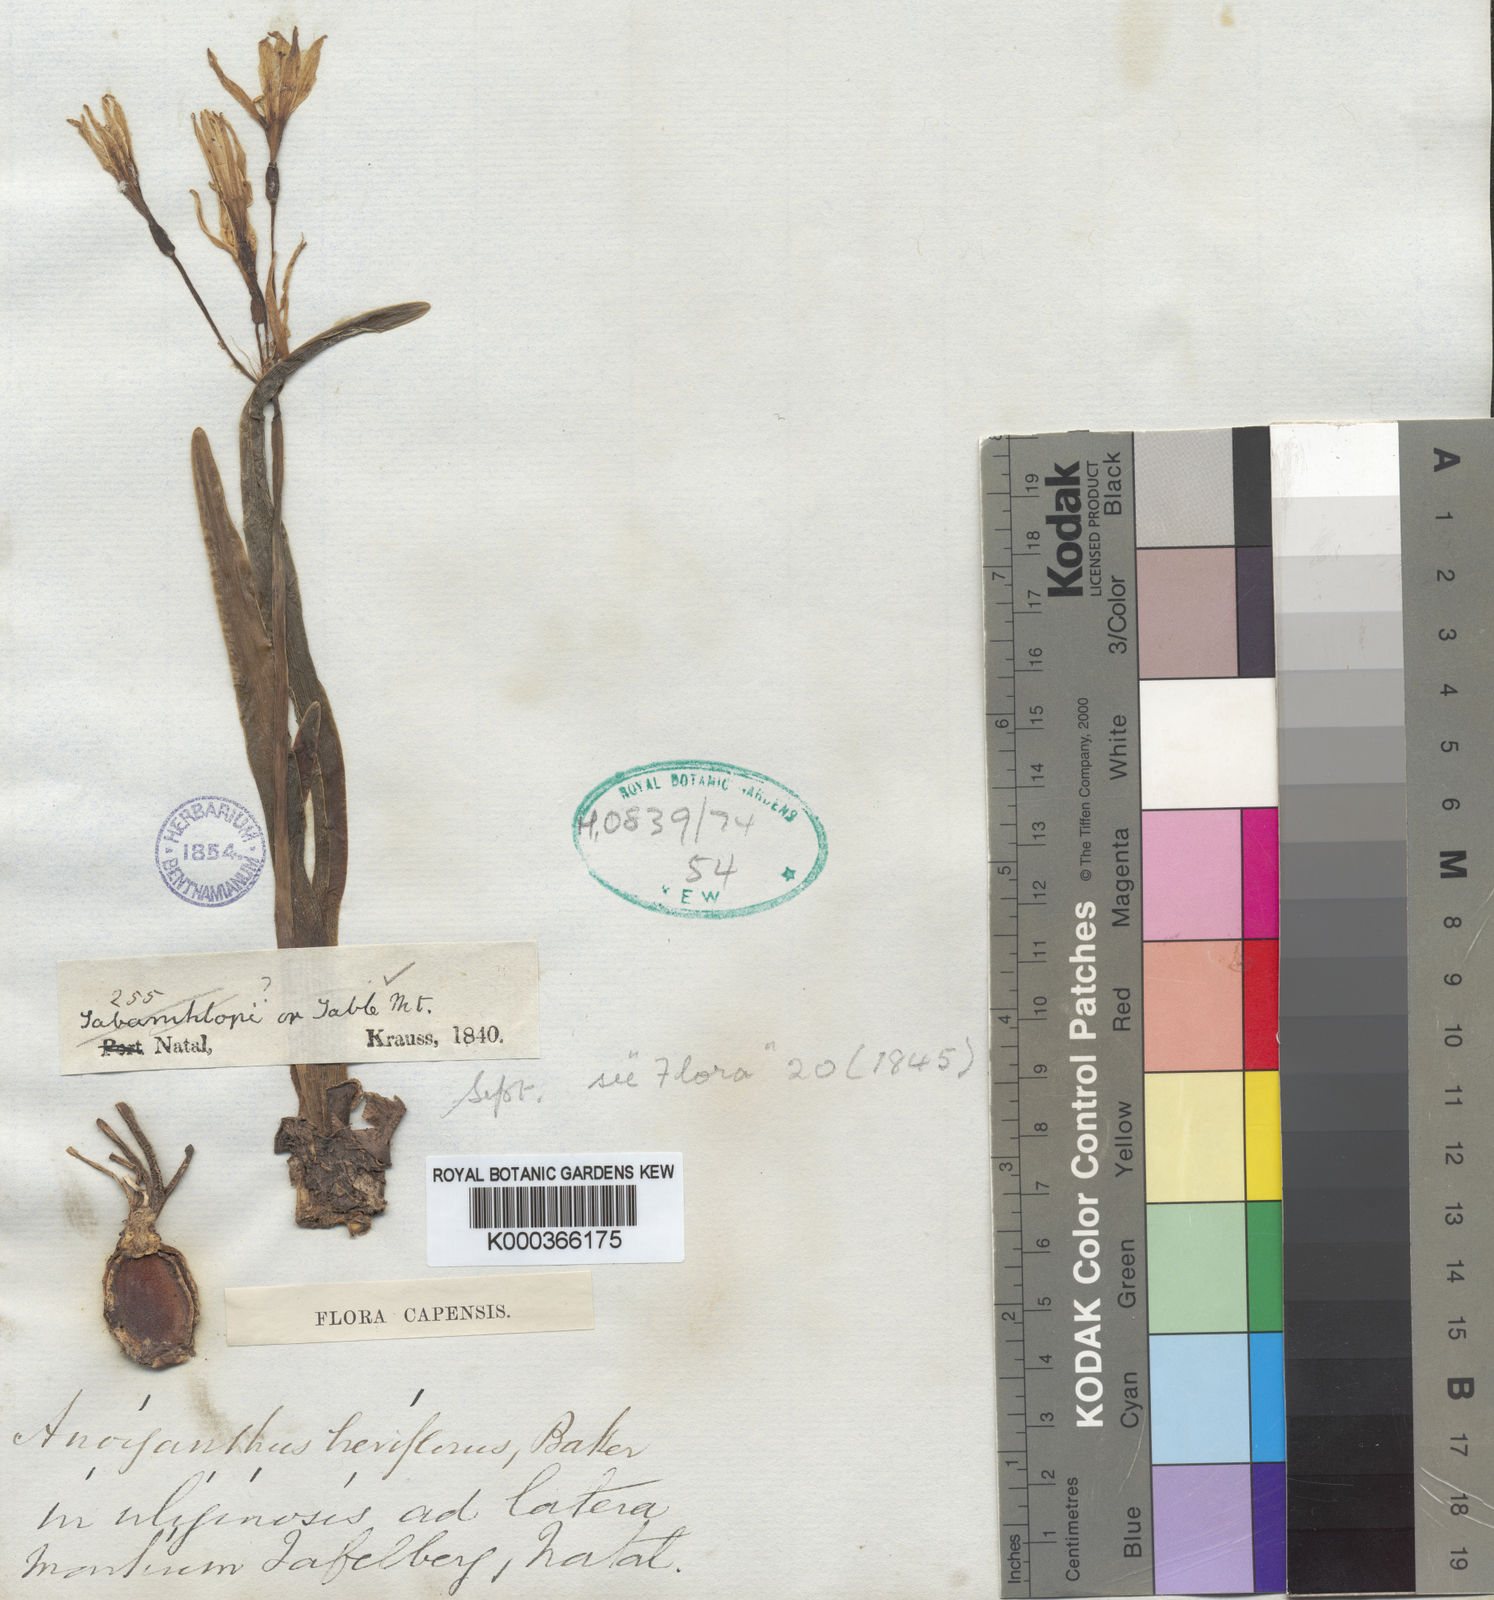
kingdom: Plantae
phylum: Tracheophyta
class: Liliopsida
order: Asparagales
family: Amaryllidaceae
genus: Cyrtanthus
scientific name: Cyrtanthus breviflorus
